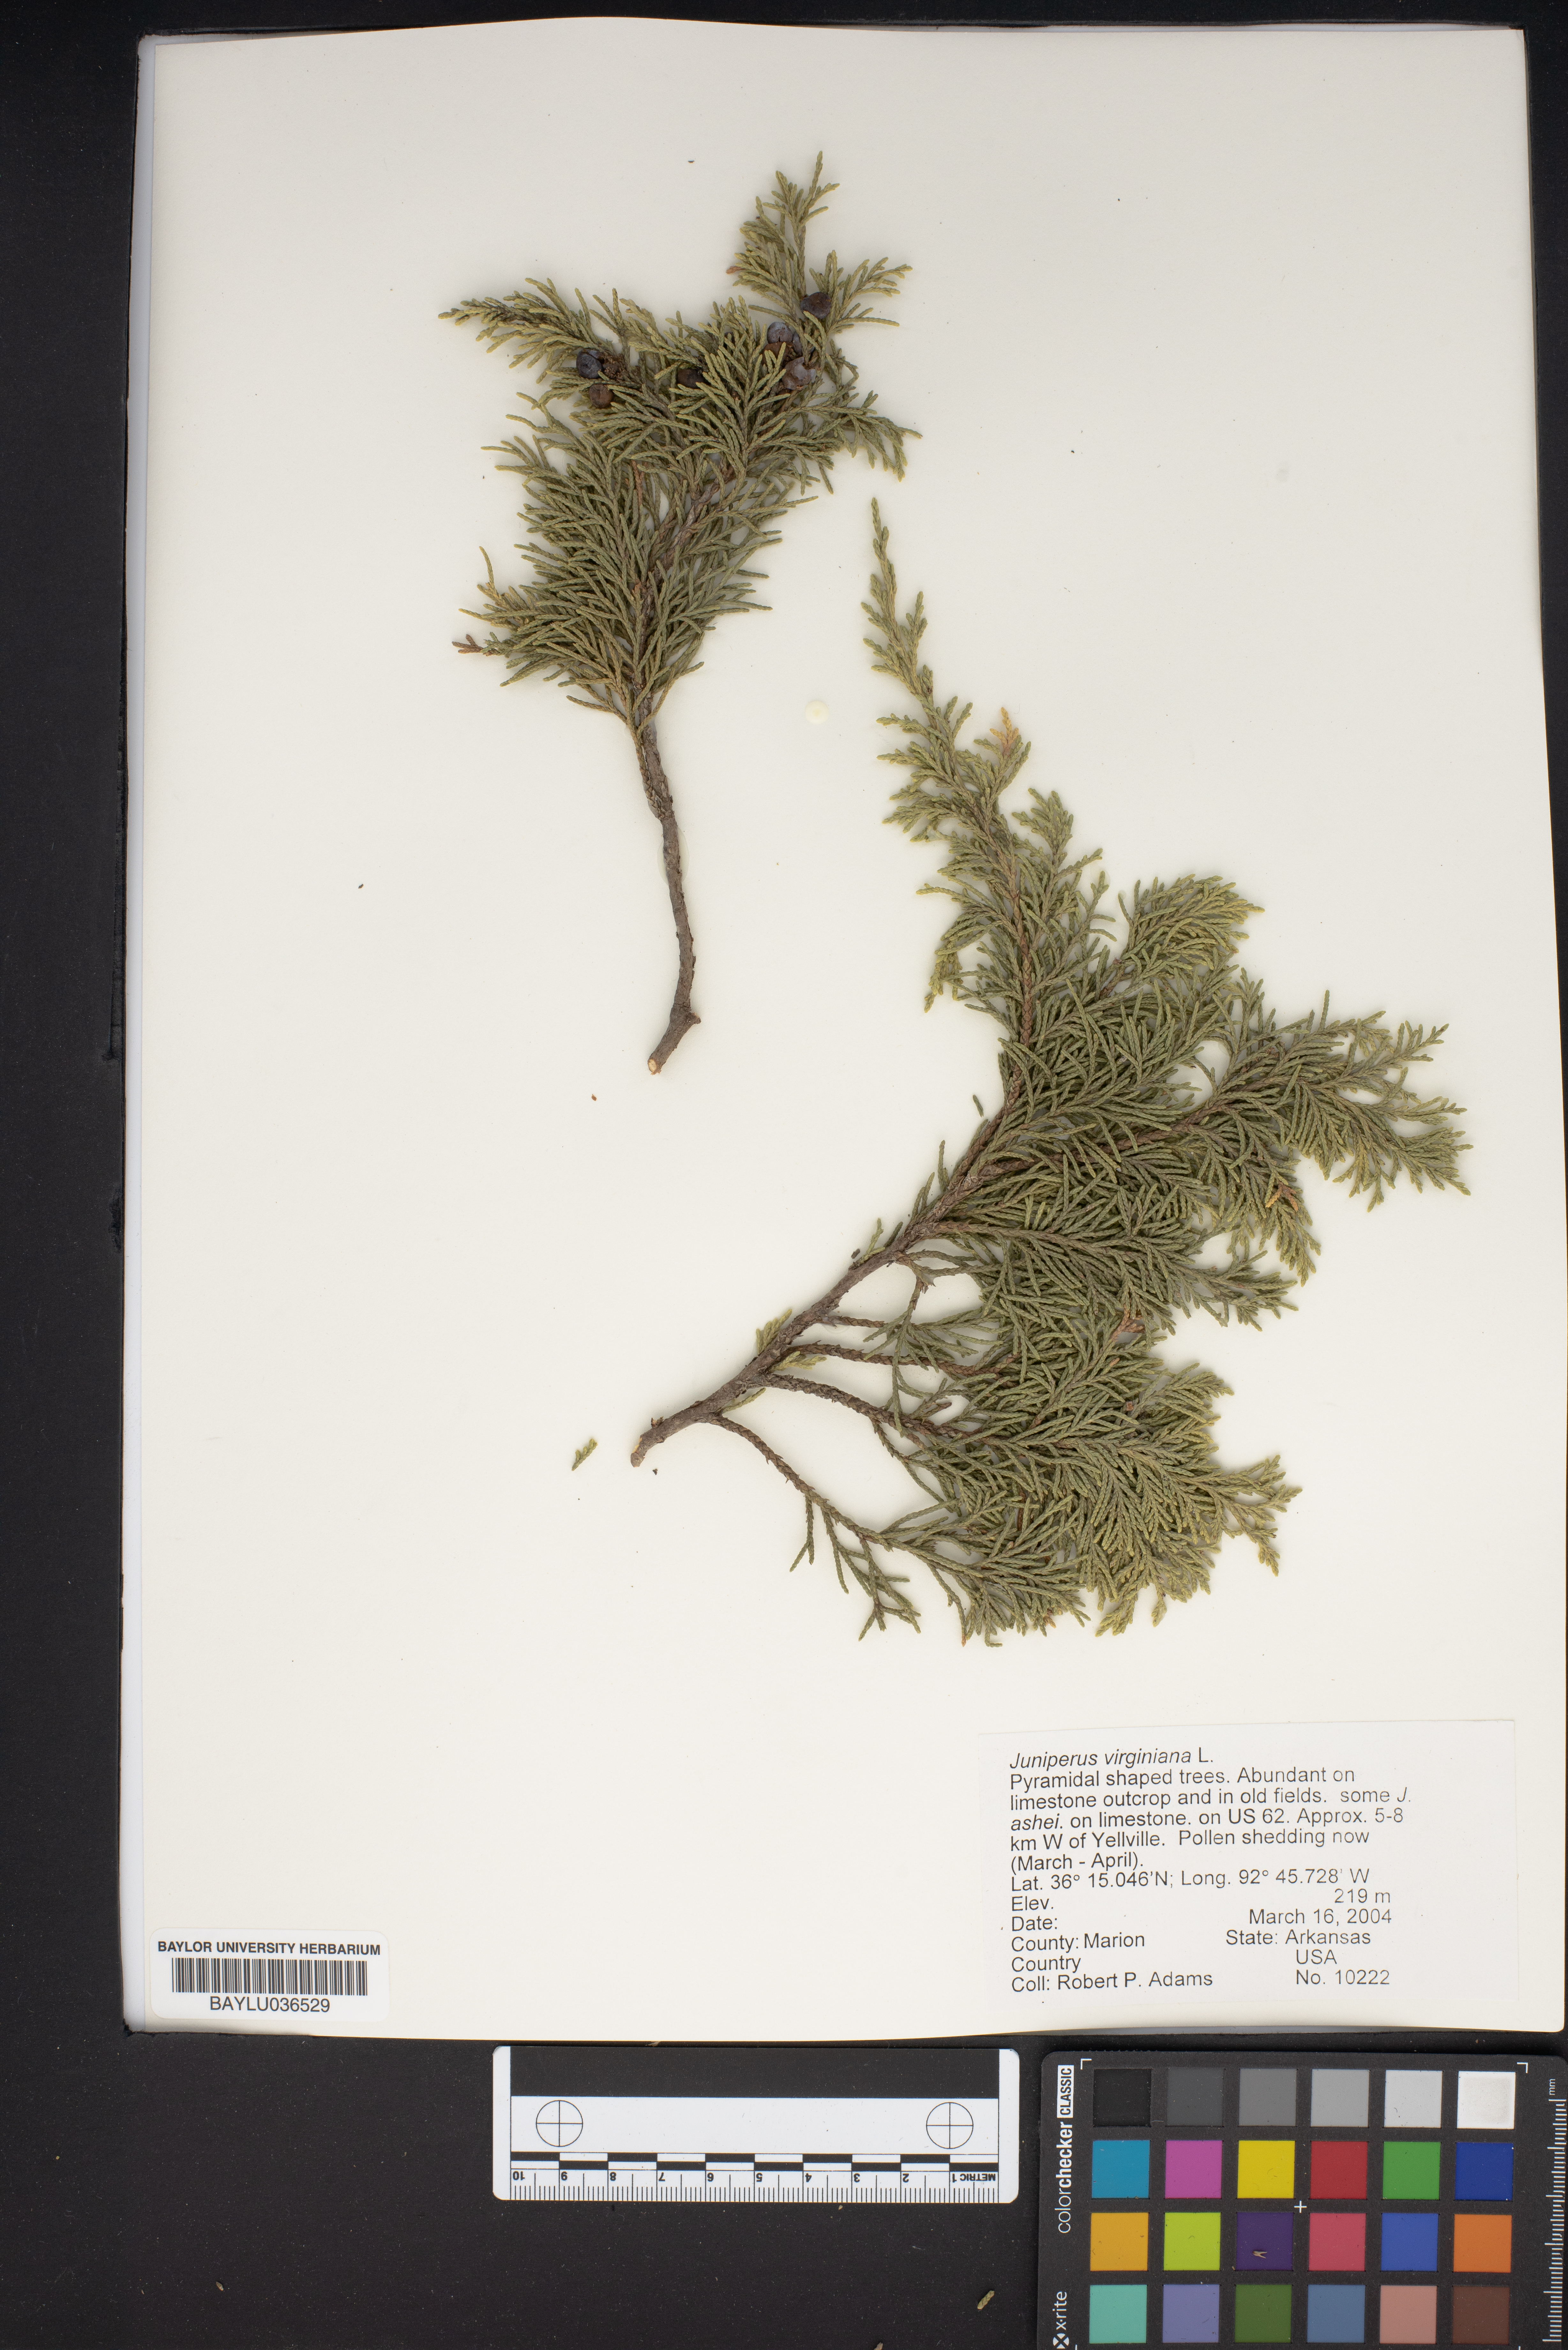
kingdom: Plantae
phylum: Tracheophyta
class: Pinopsida
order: Pinales
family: Cupressaceae
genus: Juniperus
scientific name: Juniperus virginiana
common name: Red juniper
